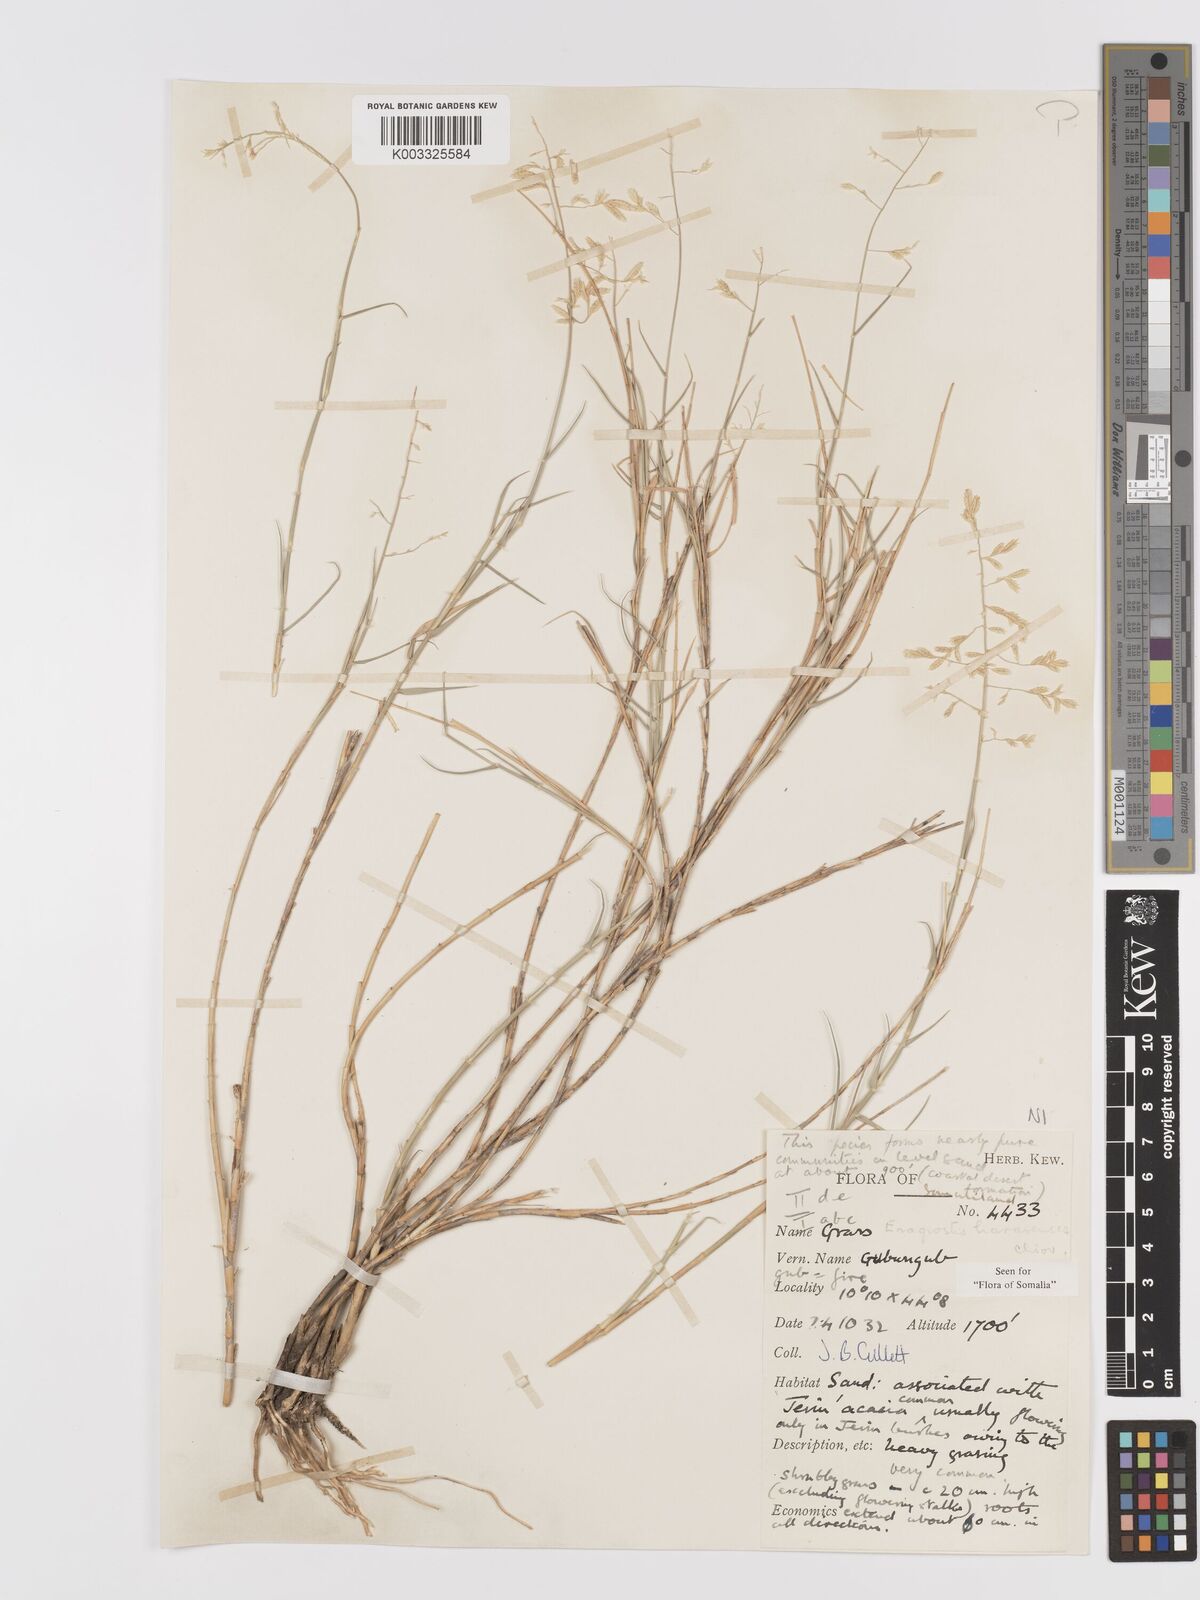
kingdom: Plantae
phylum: Tracheophyta
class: Liliopsida
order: Poales
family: Poaceae
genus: Eragrostis
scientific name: Eragrostis mahrana
